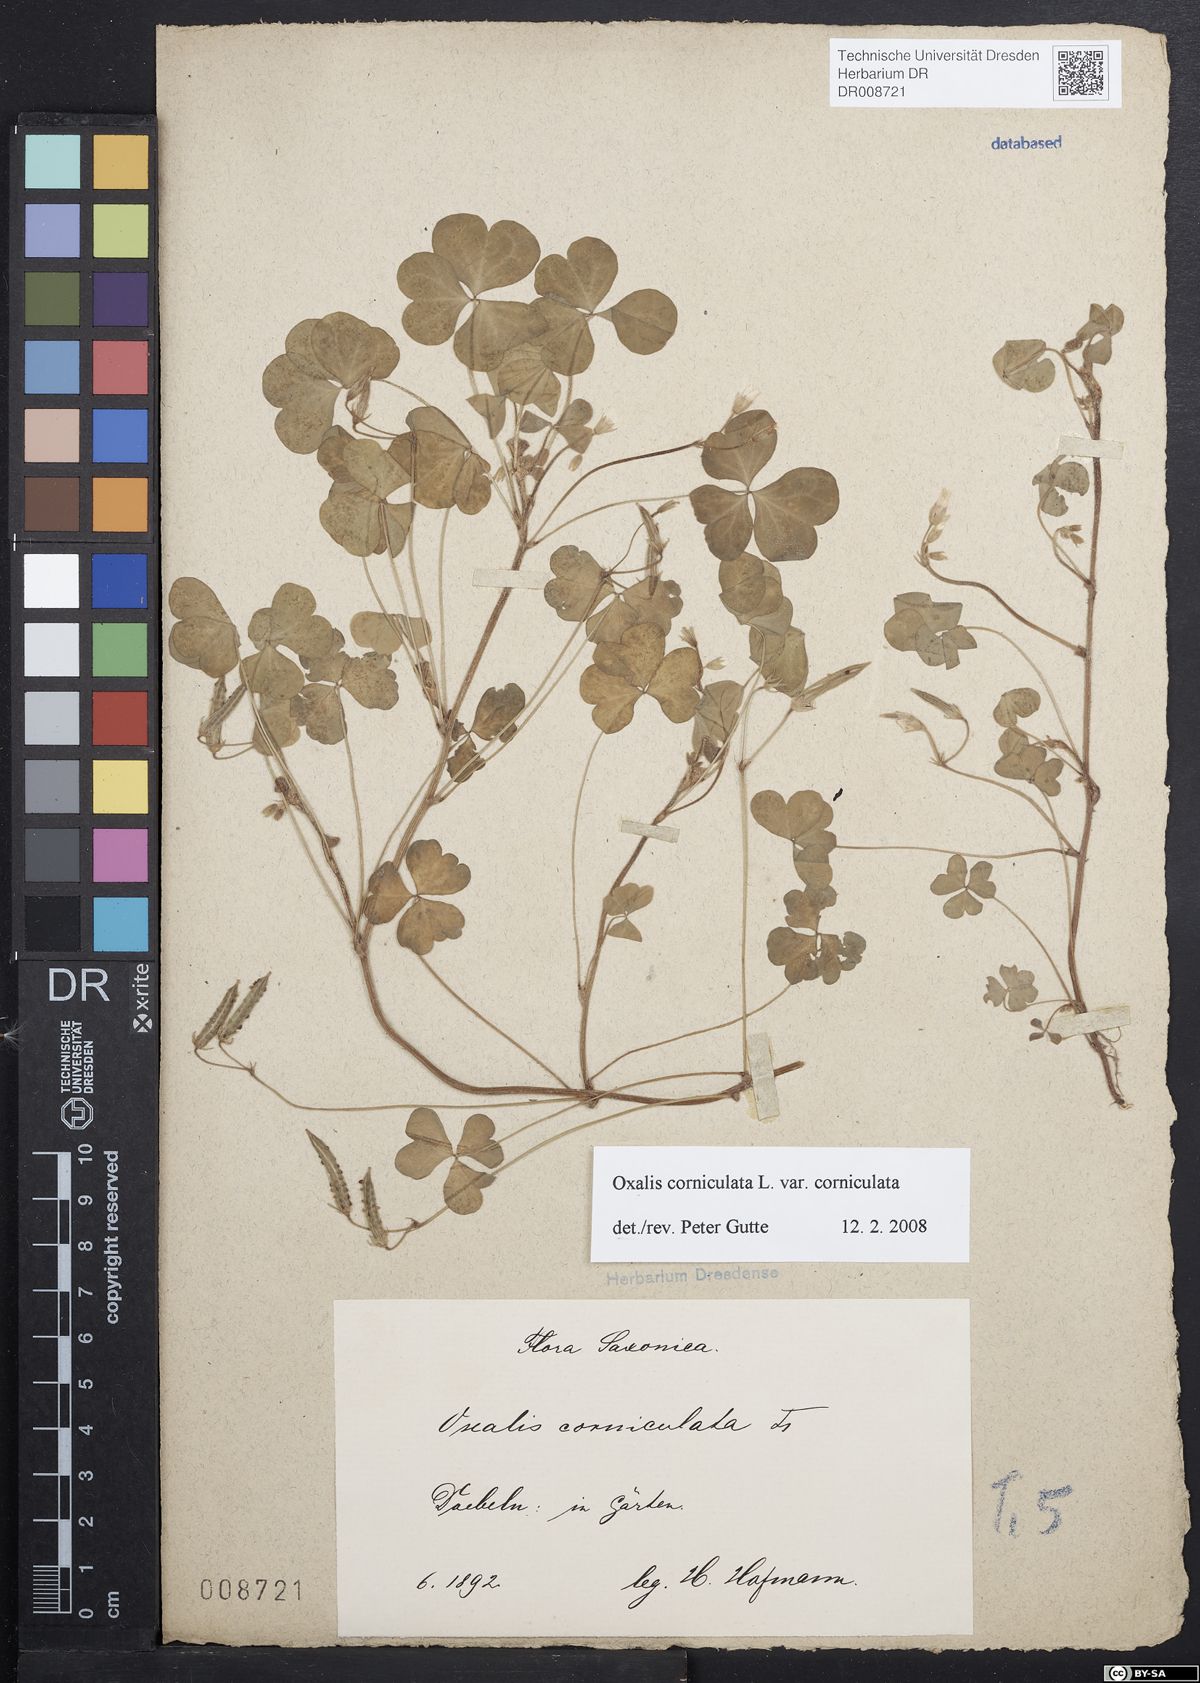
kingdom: Plantae
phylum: Tracheophyta
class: Magnoliopsida
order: Oxalidales
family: Oxalidaceae
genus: Oxalis
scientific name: Oxalis corniculata
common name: Procumbent yellow-sorrel
